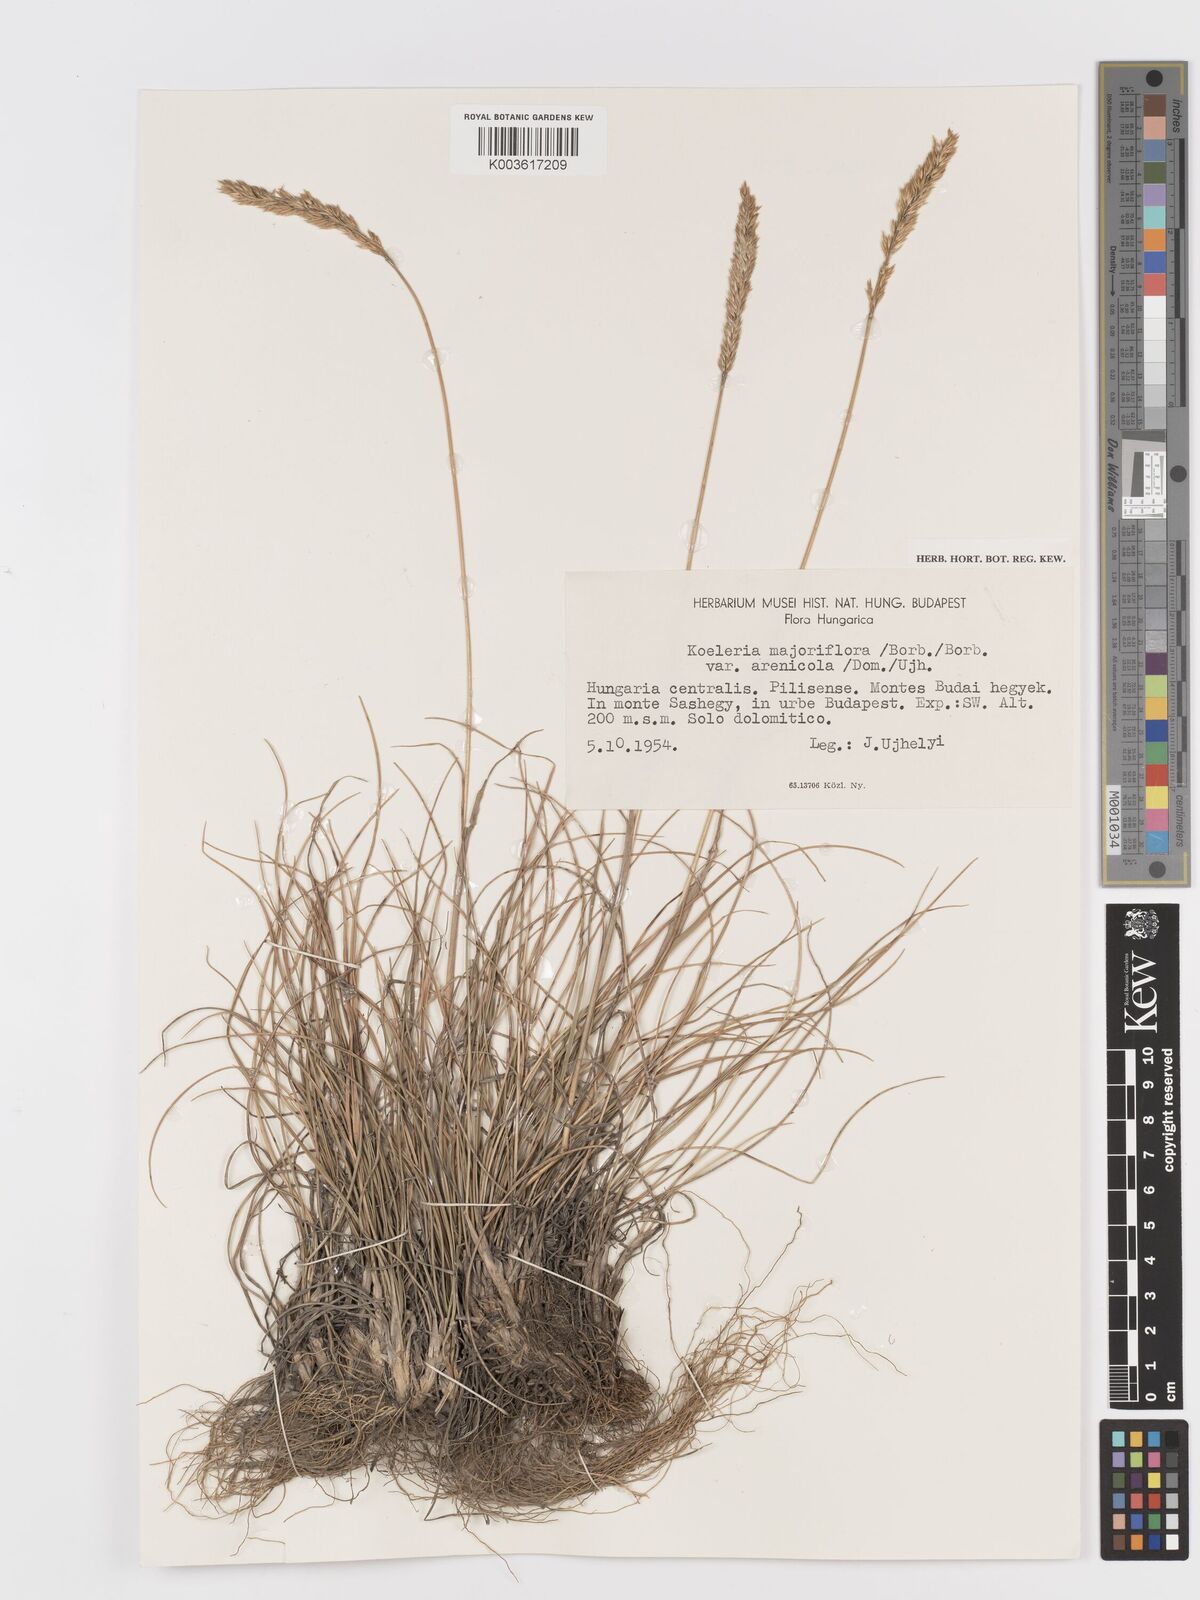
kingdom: Plantae
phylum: Tracheophyta
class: Liliopsida
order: Poales
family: Poaceae
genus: Koeleria
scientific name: Koeleria macrantha
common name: Crested hair-grass
